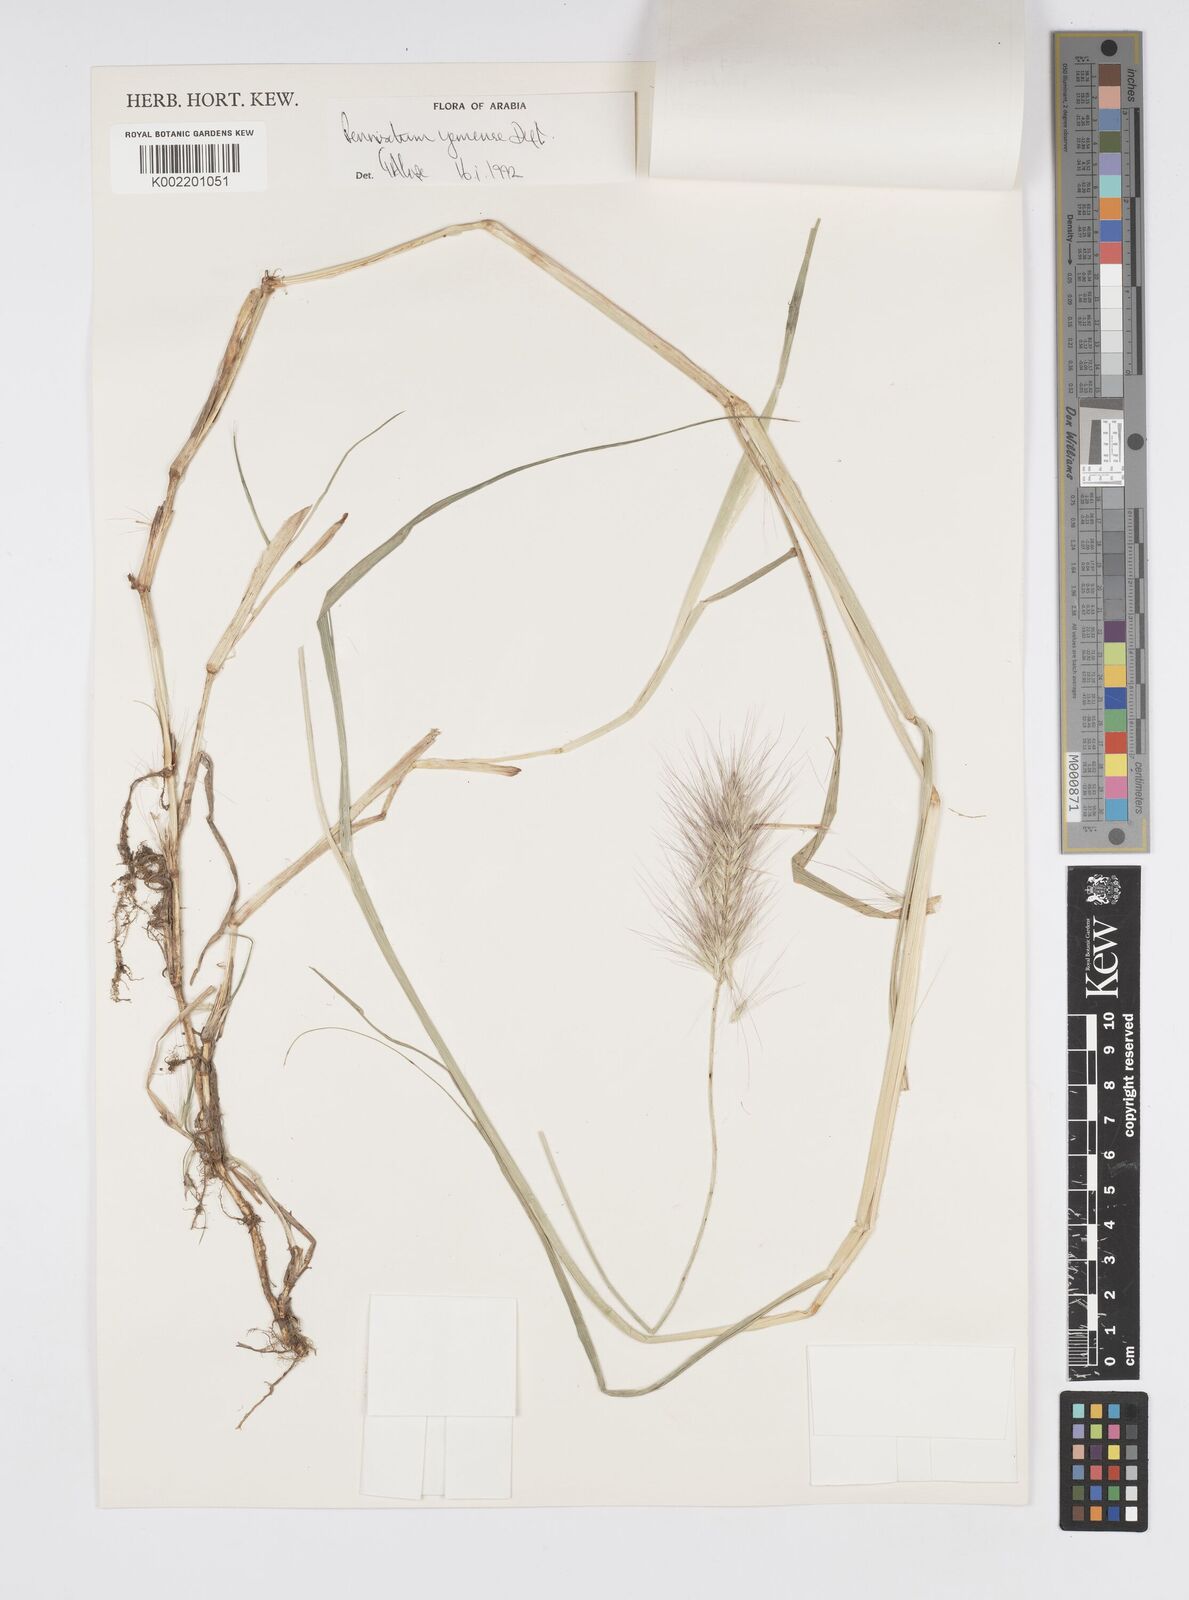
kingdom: Plantae
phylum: Tracheophyta
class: Liliopsida
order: Poales
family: Poaceae
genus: Cenchrus
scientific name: Cenchrus yemensis
